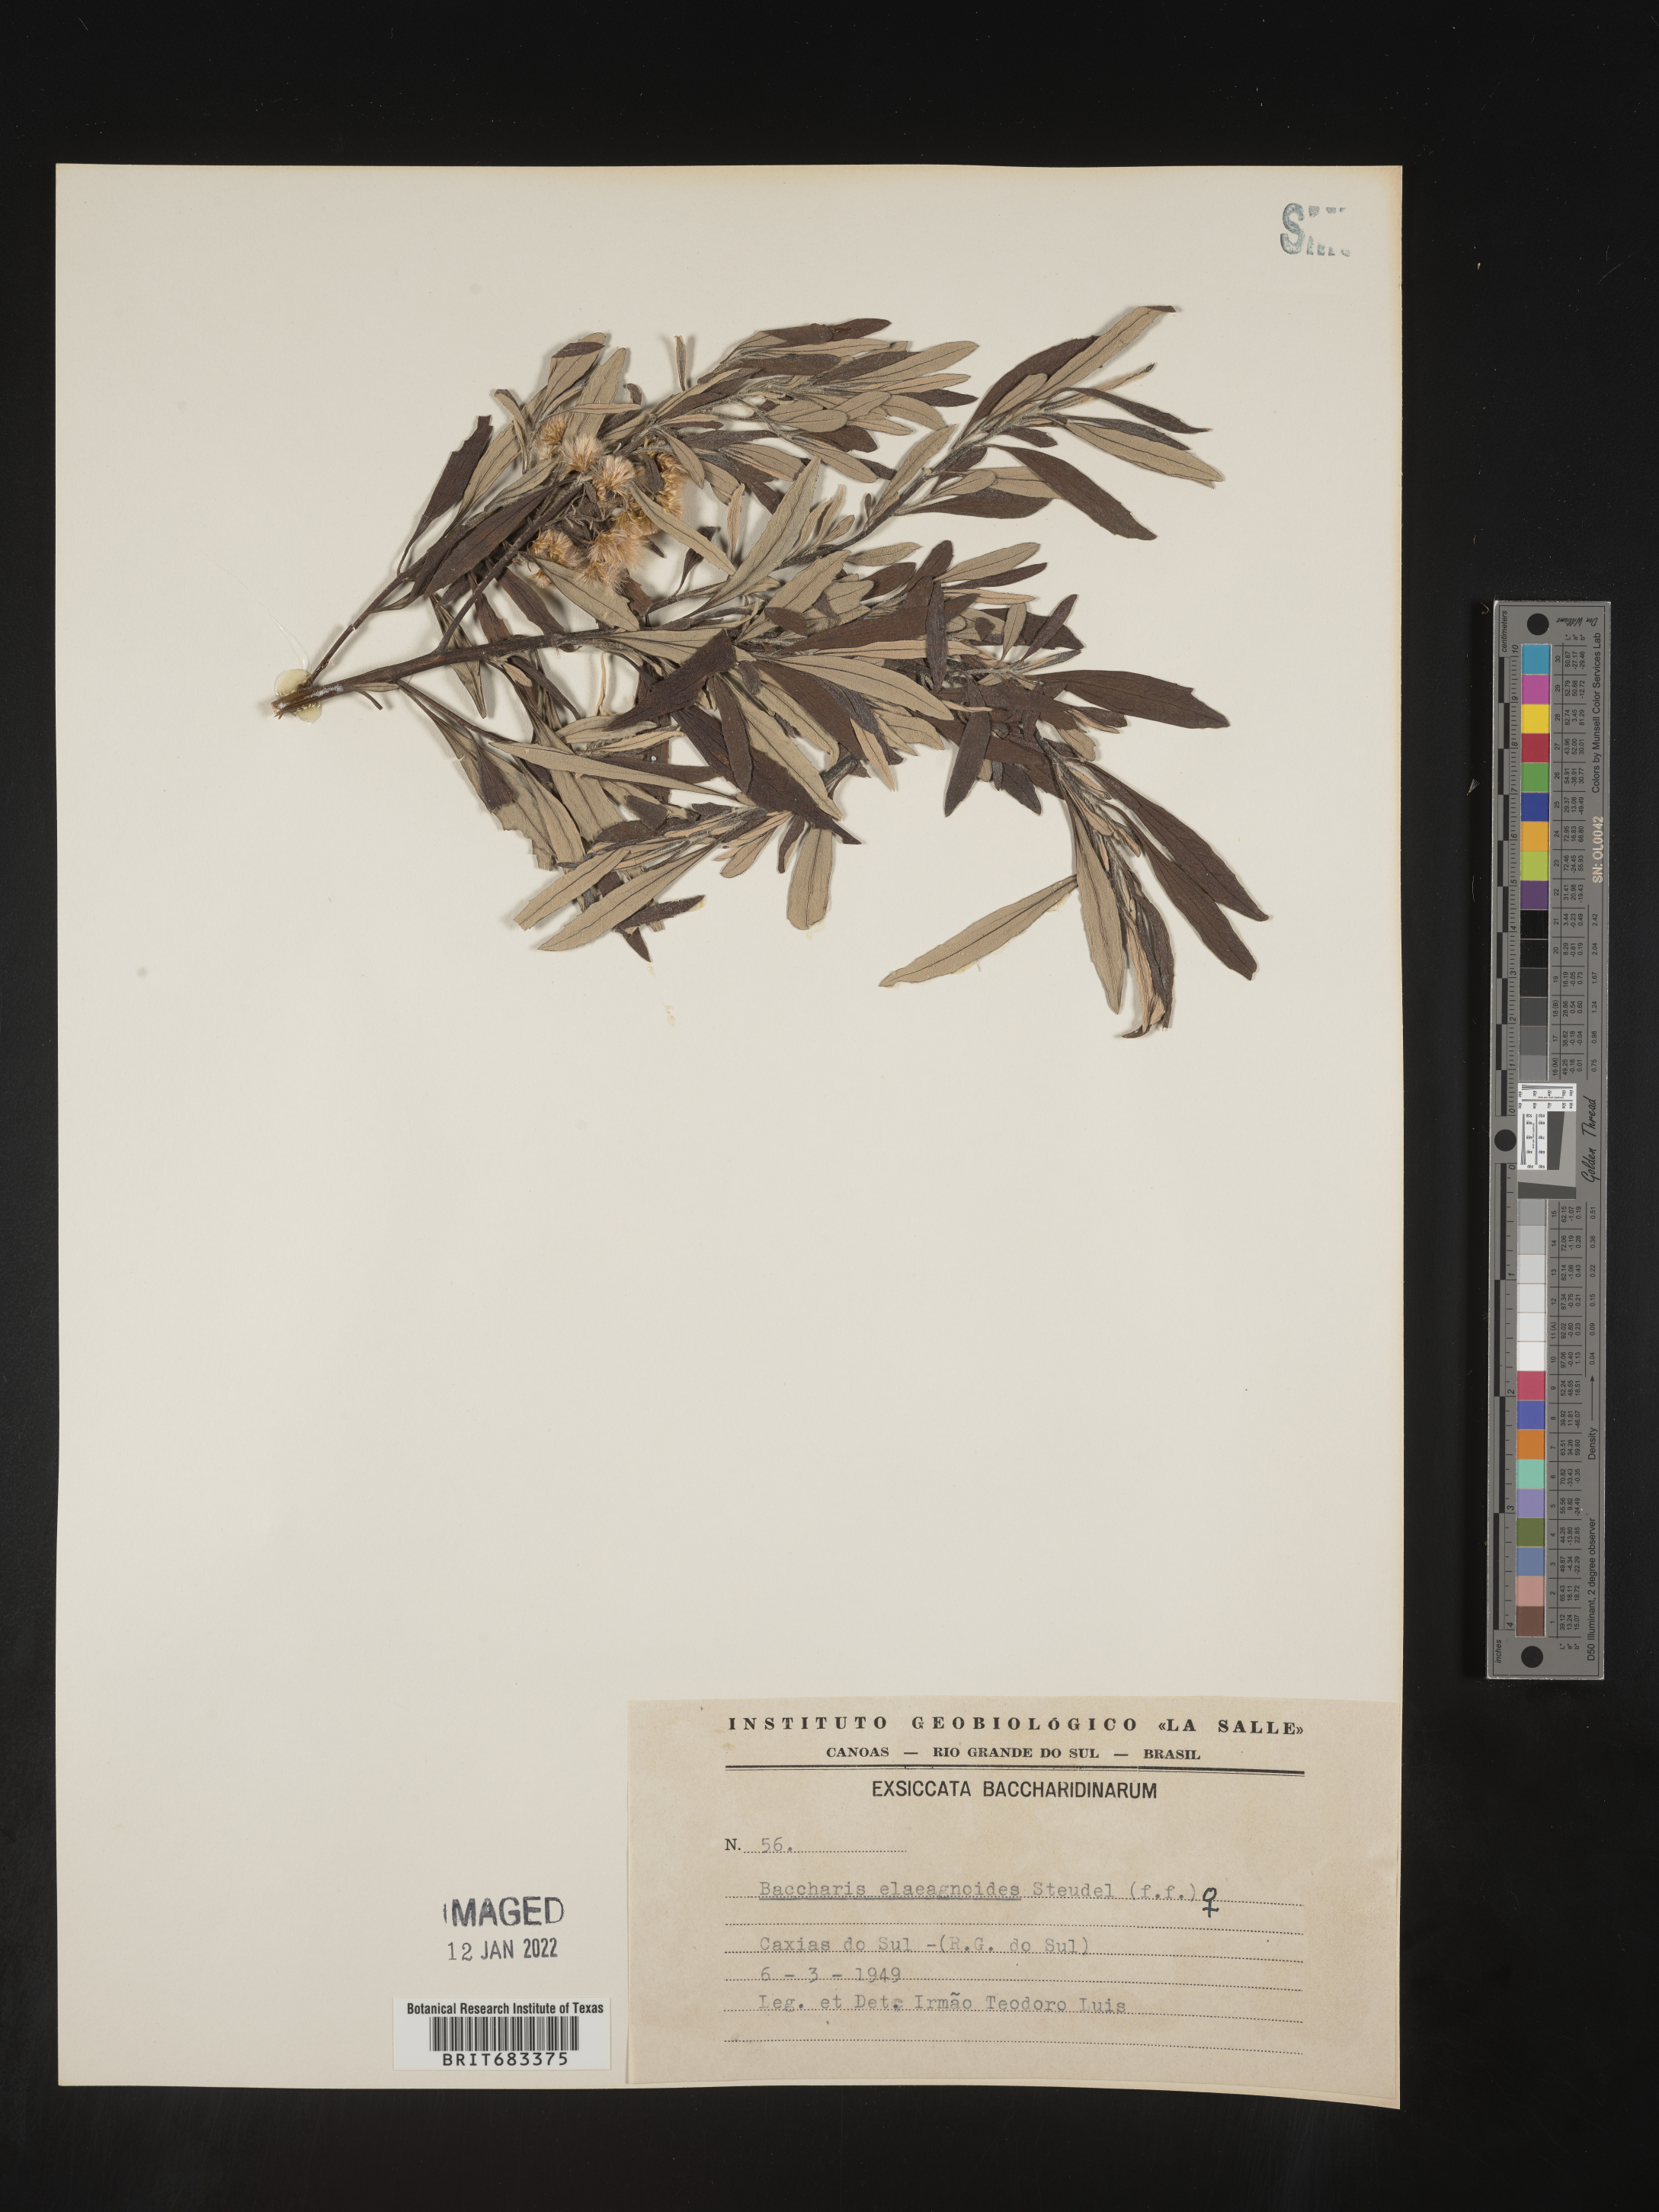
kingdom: Plantae
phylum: Tracheophyta
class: Magnoliopsida
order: Asterales
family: Asteraceae
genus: Baccharis
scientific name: Baccharis
